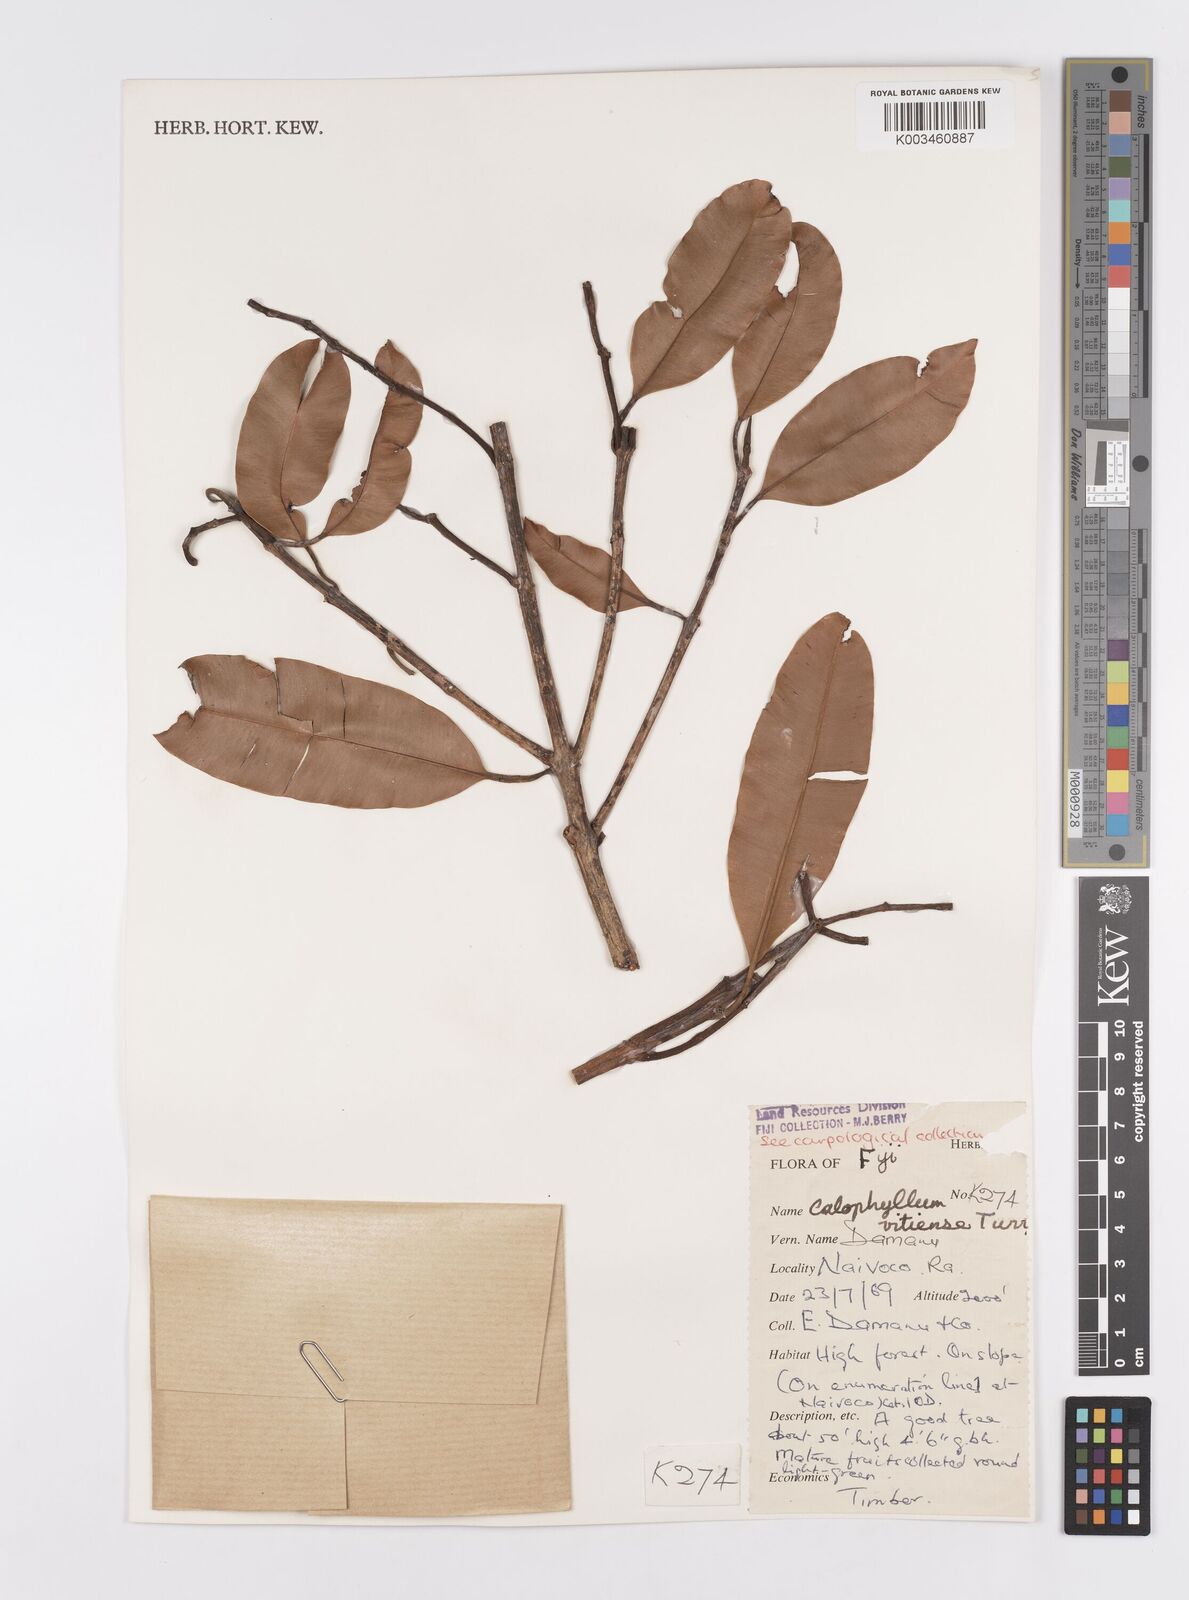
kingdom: Plantae
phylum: Tracheophyta
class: Magnoliopsida
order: Malpighiales
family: Calophyllaceae
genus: Calophyllum
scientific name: Calophyllum vitiense
